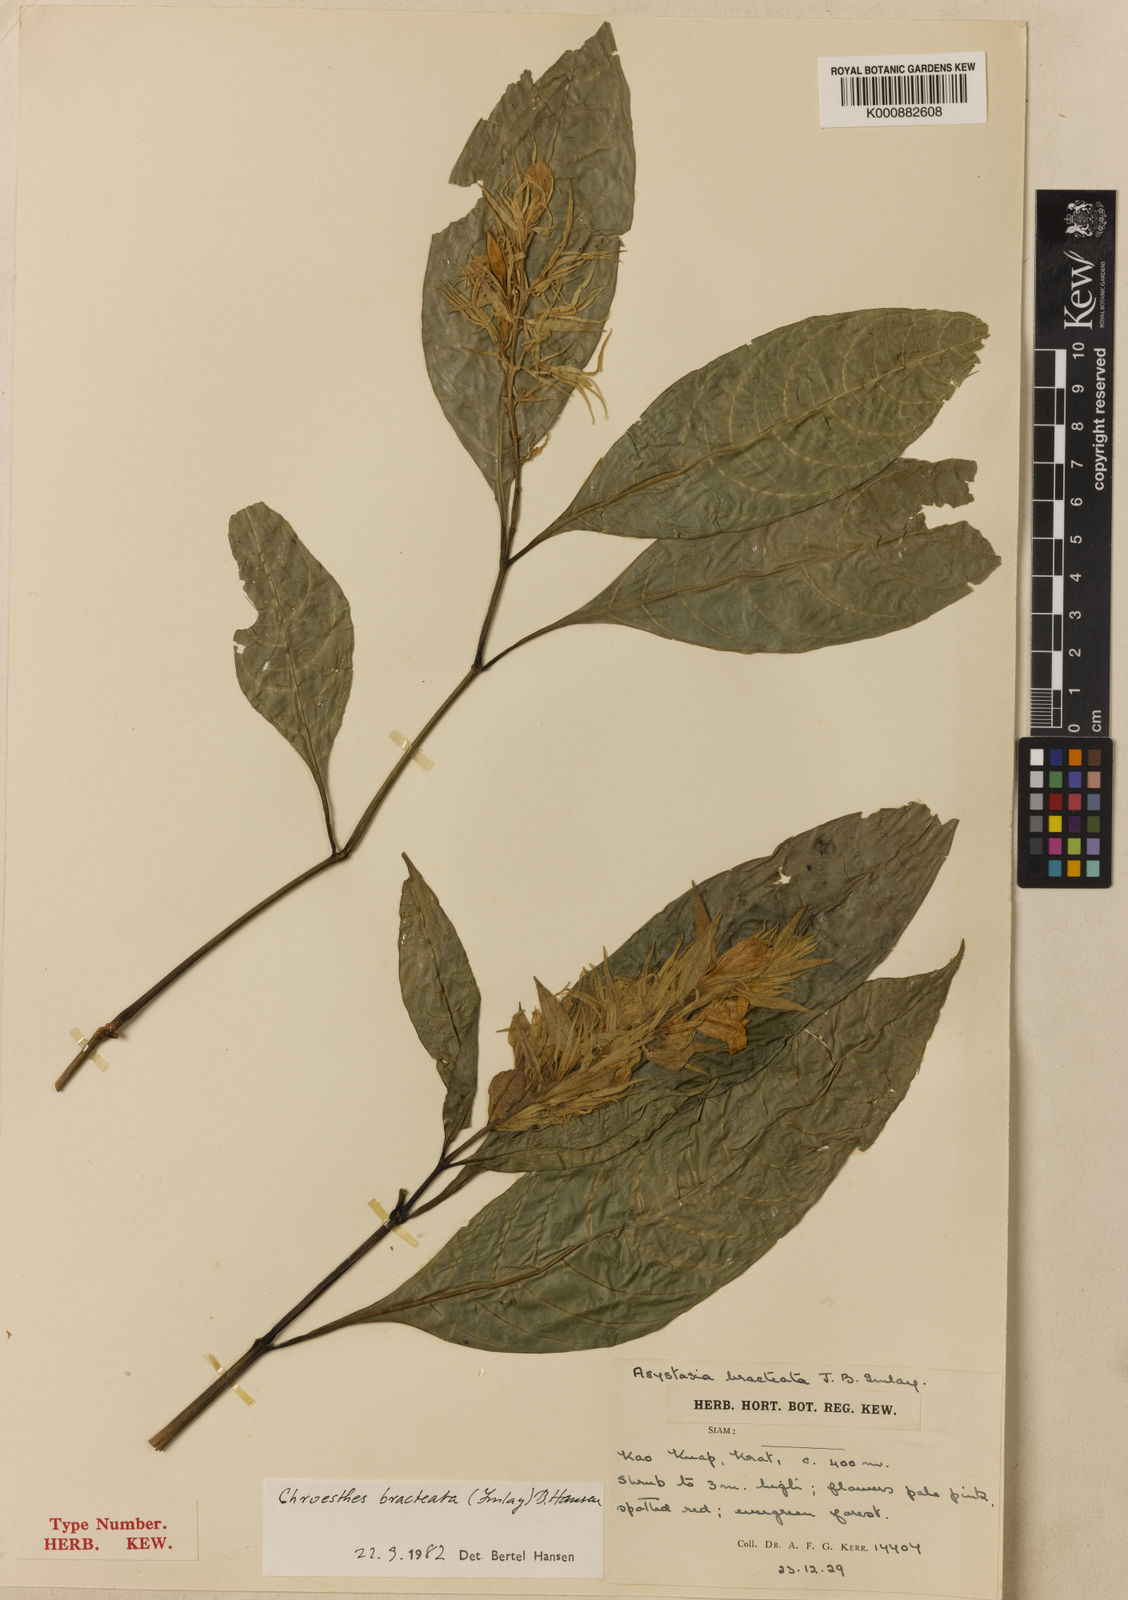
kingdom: Plantae
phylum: Tracheophyta
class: Magnoliopsida
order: Lamiales
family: Acanthaceae
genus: Chroesthes
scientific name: Chroesthes bracteata
